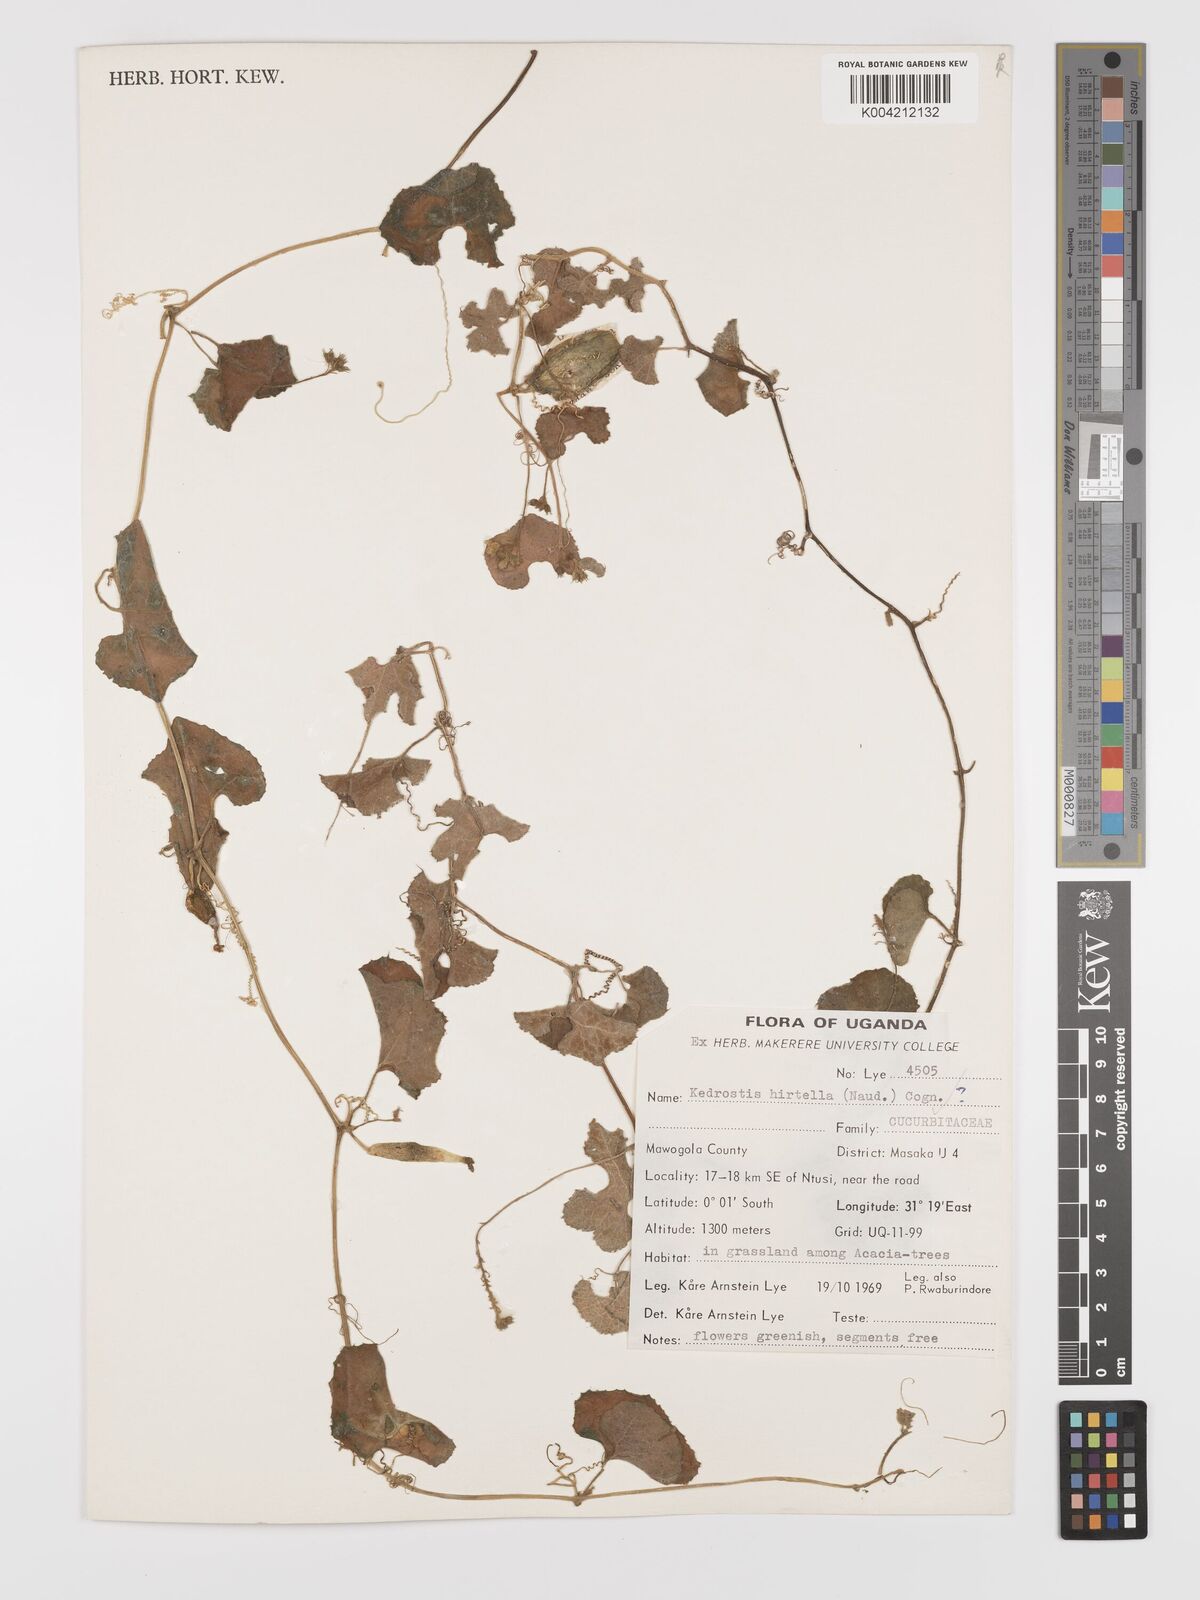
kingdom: Plantae
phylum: Tracheophyta
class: Magnoliopsida
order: Cucurbitales
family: Cucurbitaceae
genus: Kedrostis
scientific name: Kedrostis leloja
